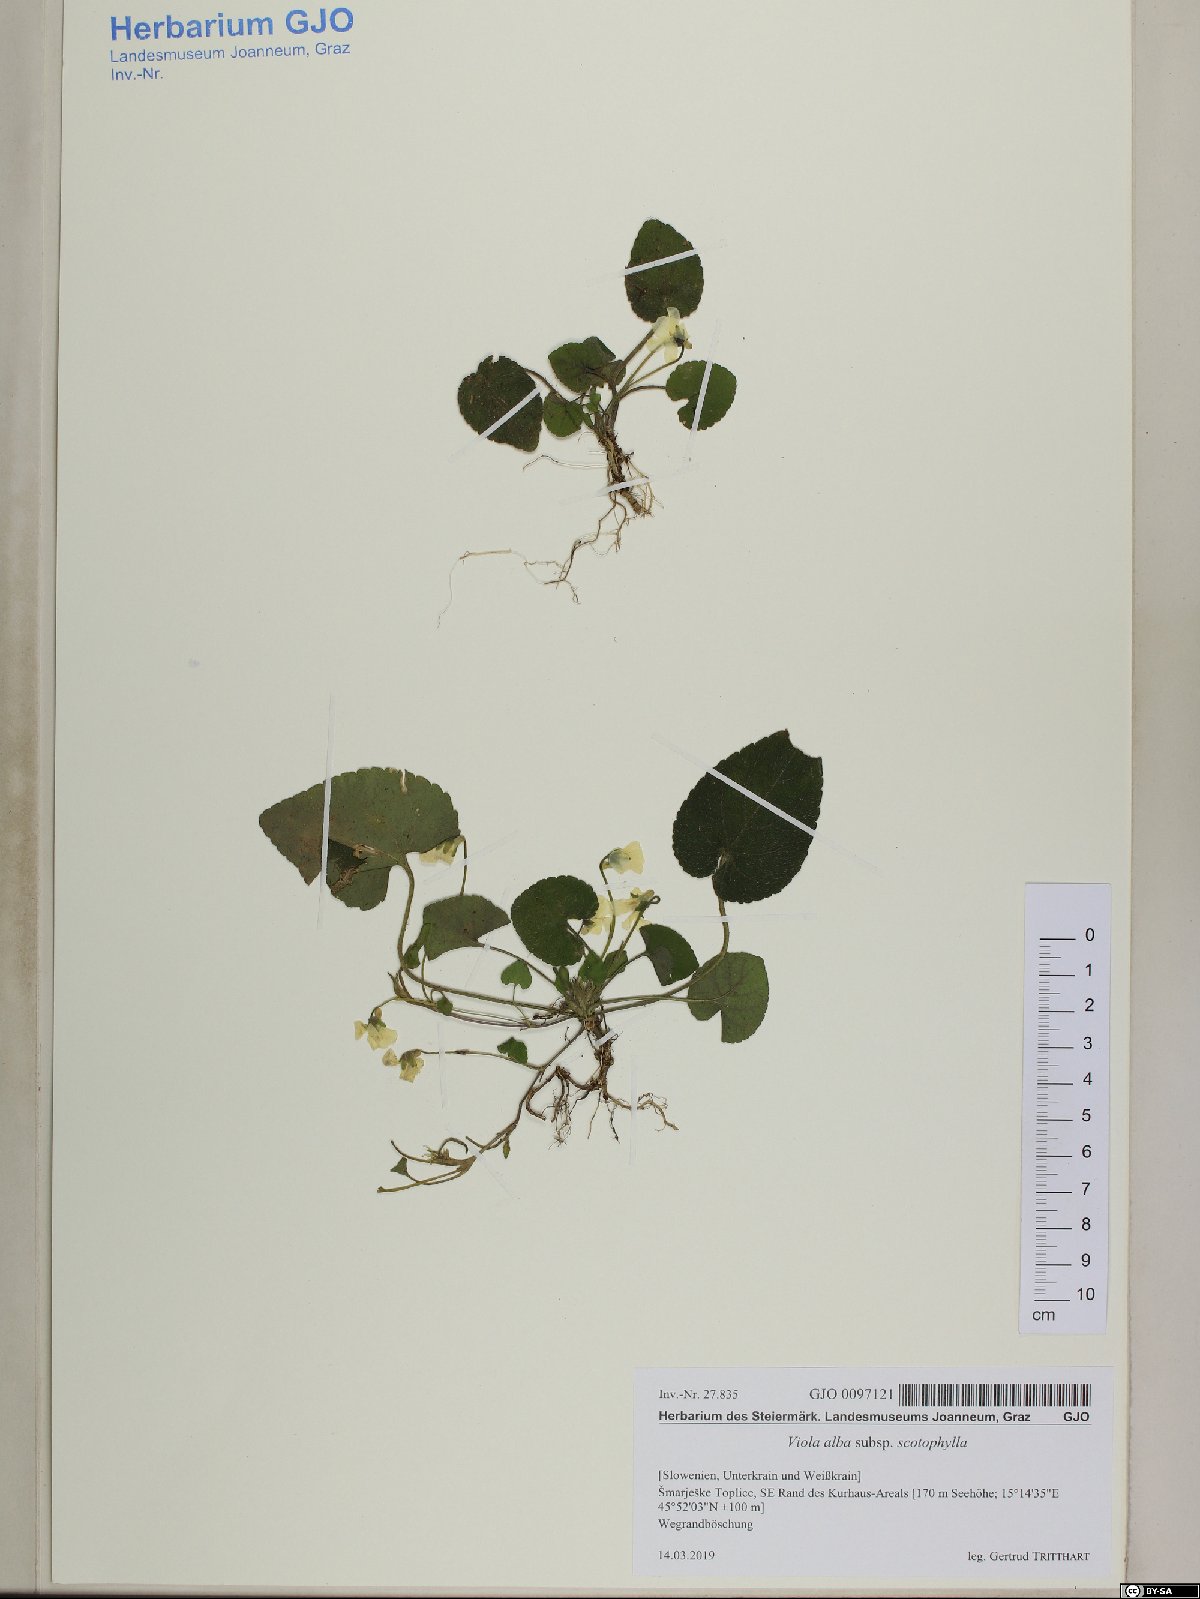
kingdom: Plantae
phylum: Tracheophyta
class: Magnoliopsida
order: Malpighiales
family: Violaceae
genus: Viola
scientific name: Viola alba
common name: White violet
